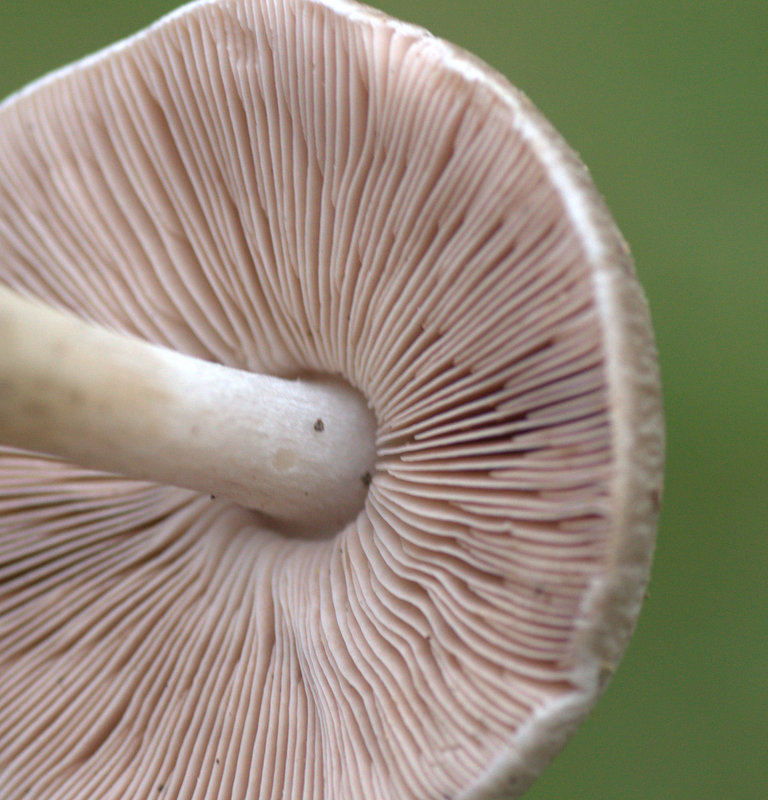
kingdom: Fungi
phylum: Basidiomycota
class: Agaricomycetes
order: Agaricales
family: Pluteaceae
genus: Pluteus
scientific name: Pluteus cervinus
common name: sodfarvet skærmhat
